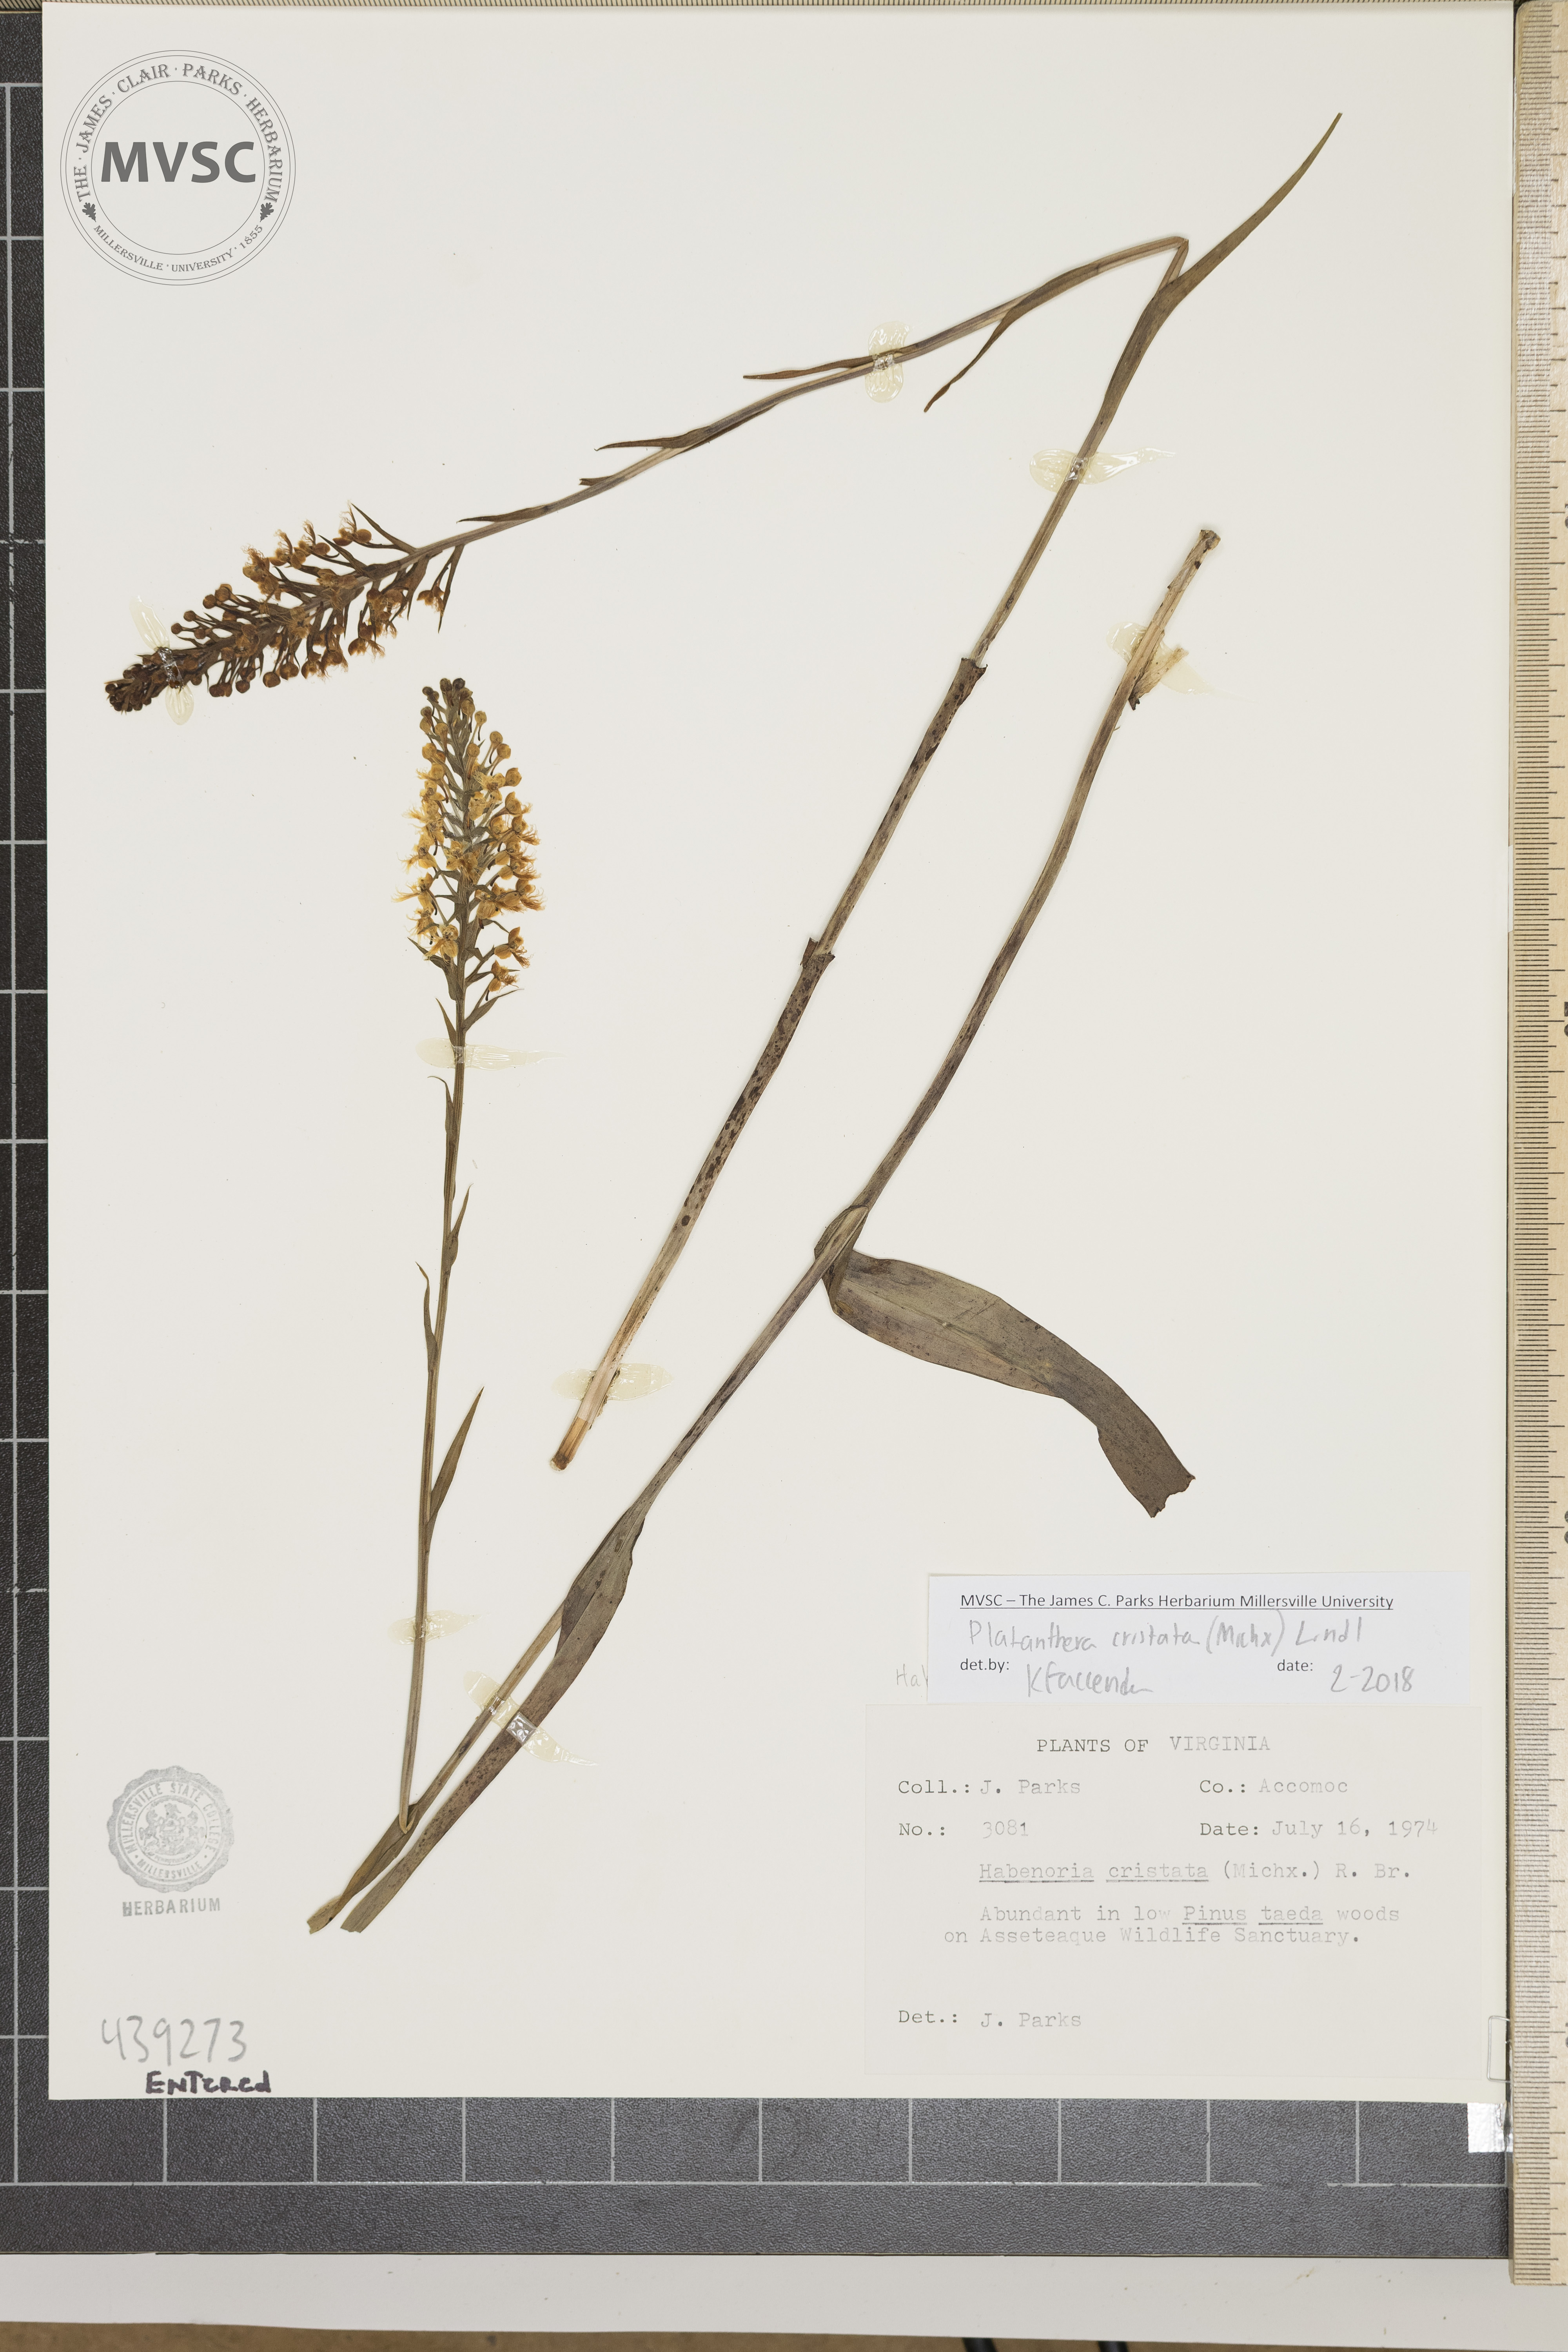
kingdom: Plantae
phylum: Tracheophyta
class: Liliopsida
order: Asparagales
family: Orchidaceae
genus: Platanthera
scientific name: Platanthera cristata
